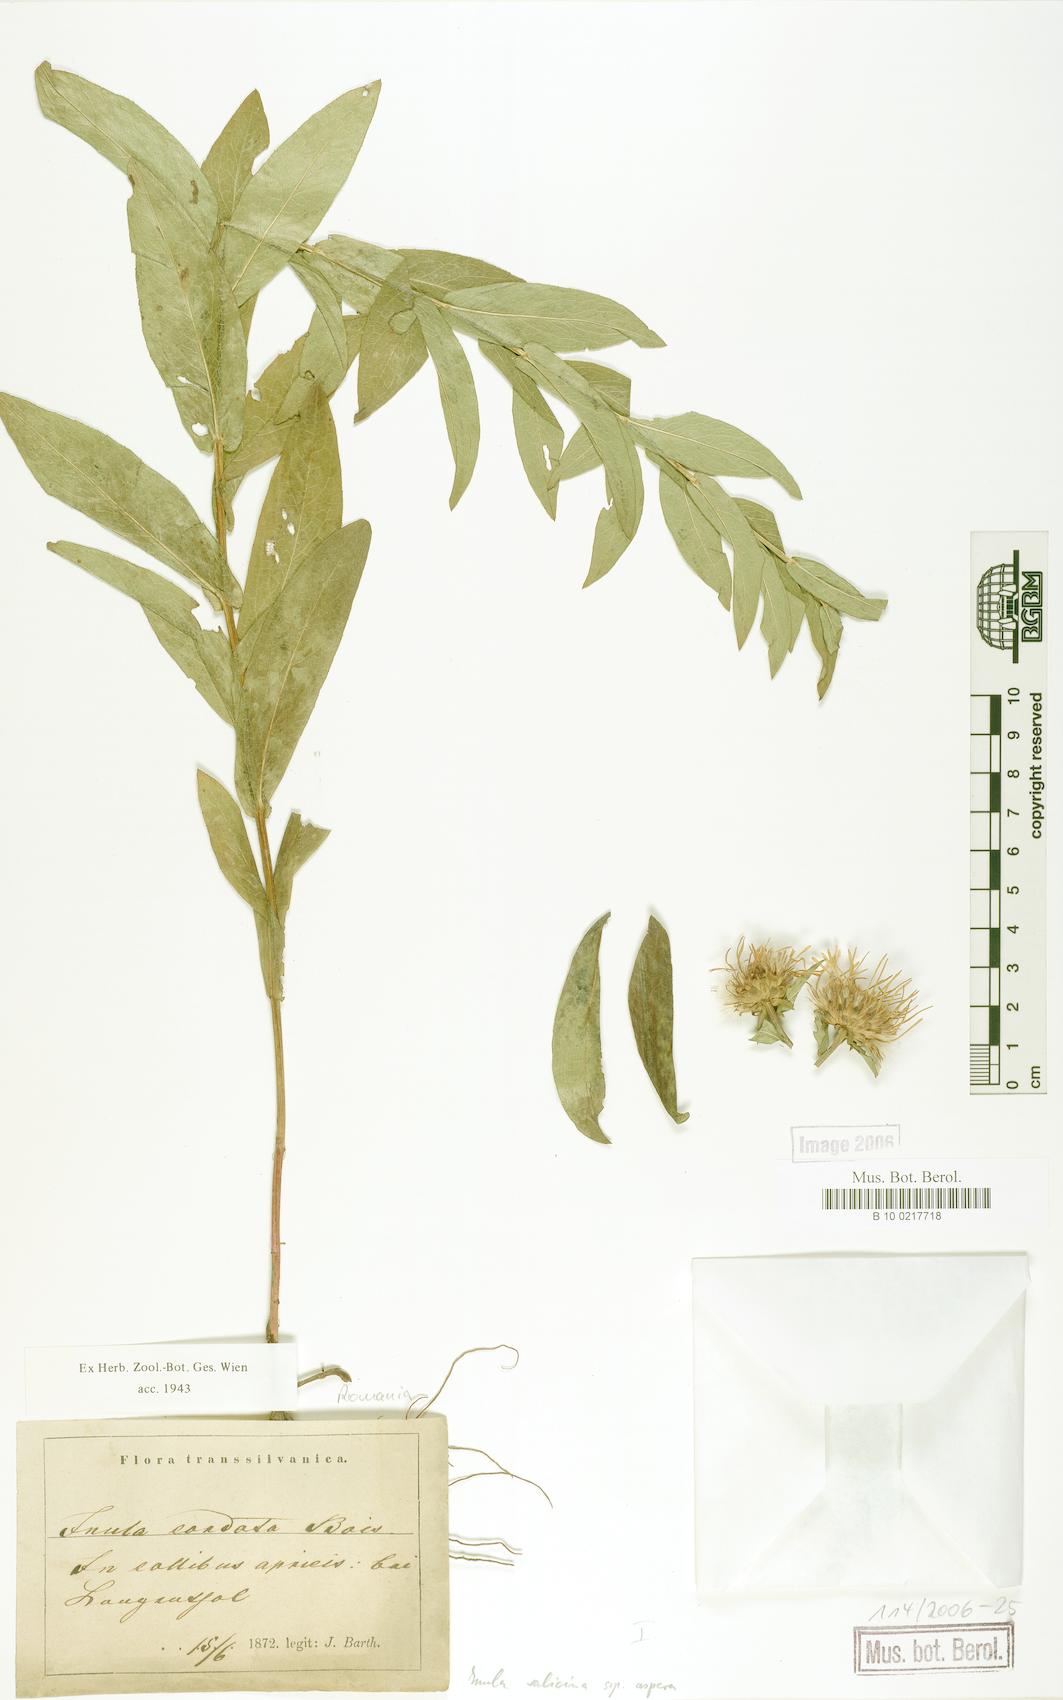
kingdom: Plantae
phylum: Tracheophyta
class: Magnoliopsida
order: Asterales
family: Asteraceae
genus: Pentanema
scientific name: Pentanema salicinum
